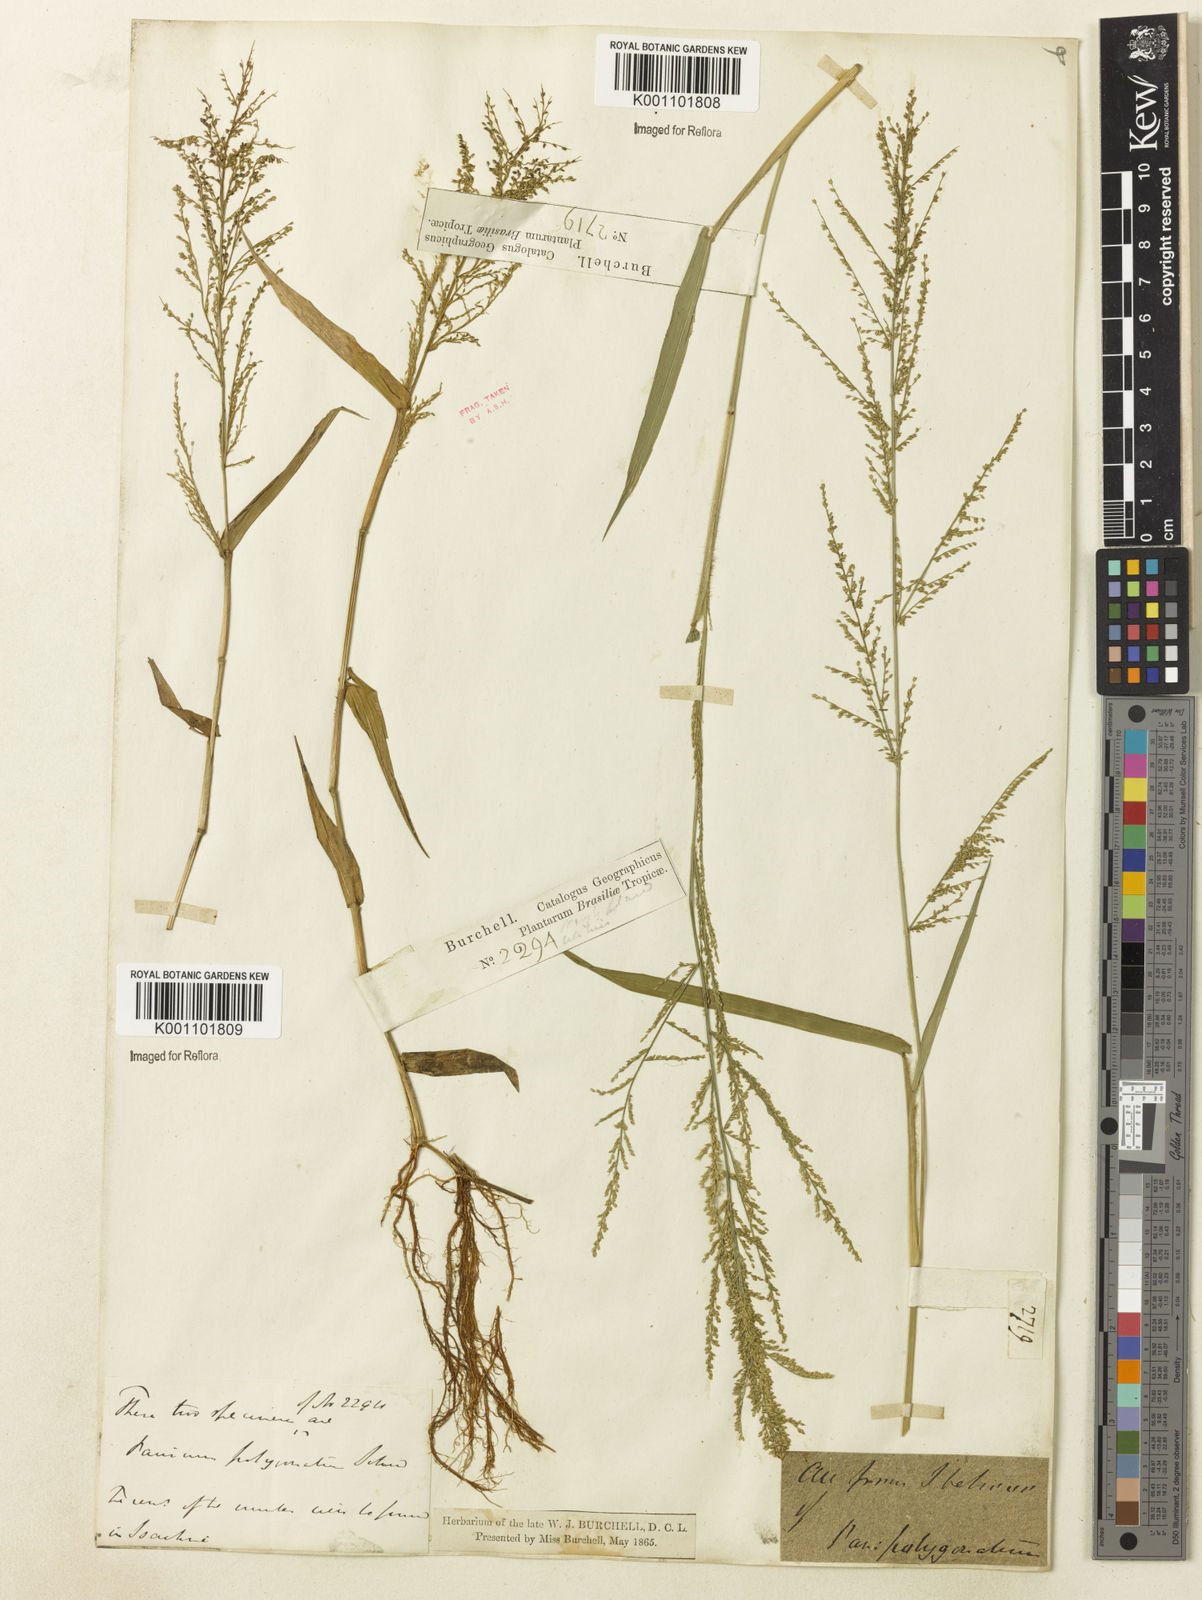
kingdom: Plantae
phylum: Tracheophyta
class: Liliopsida
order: Poales
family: Poaceae
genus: Rugoloa
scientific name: Rugoloa polygonata
